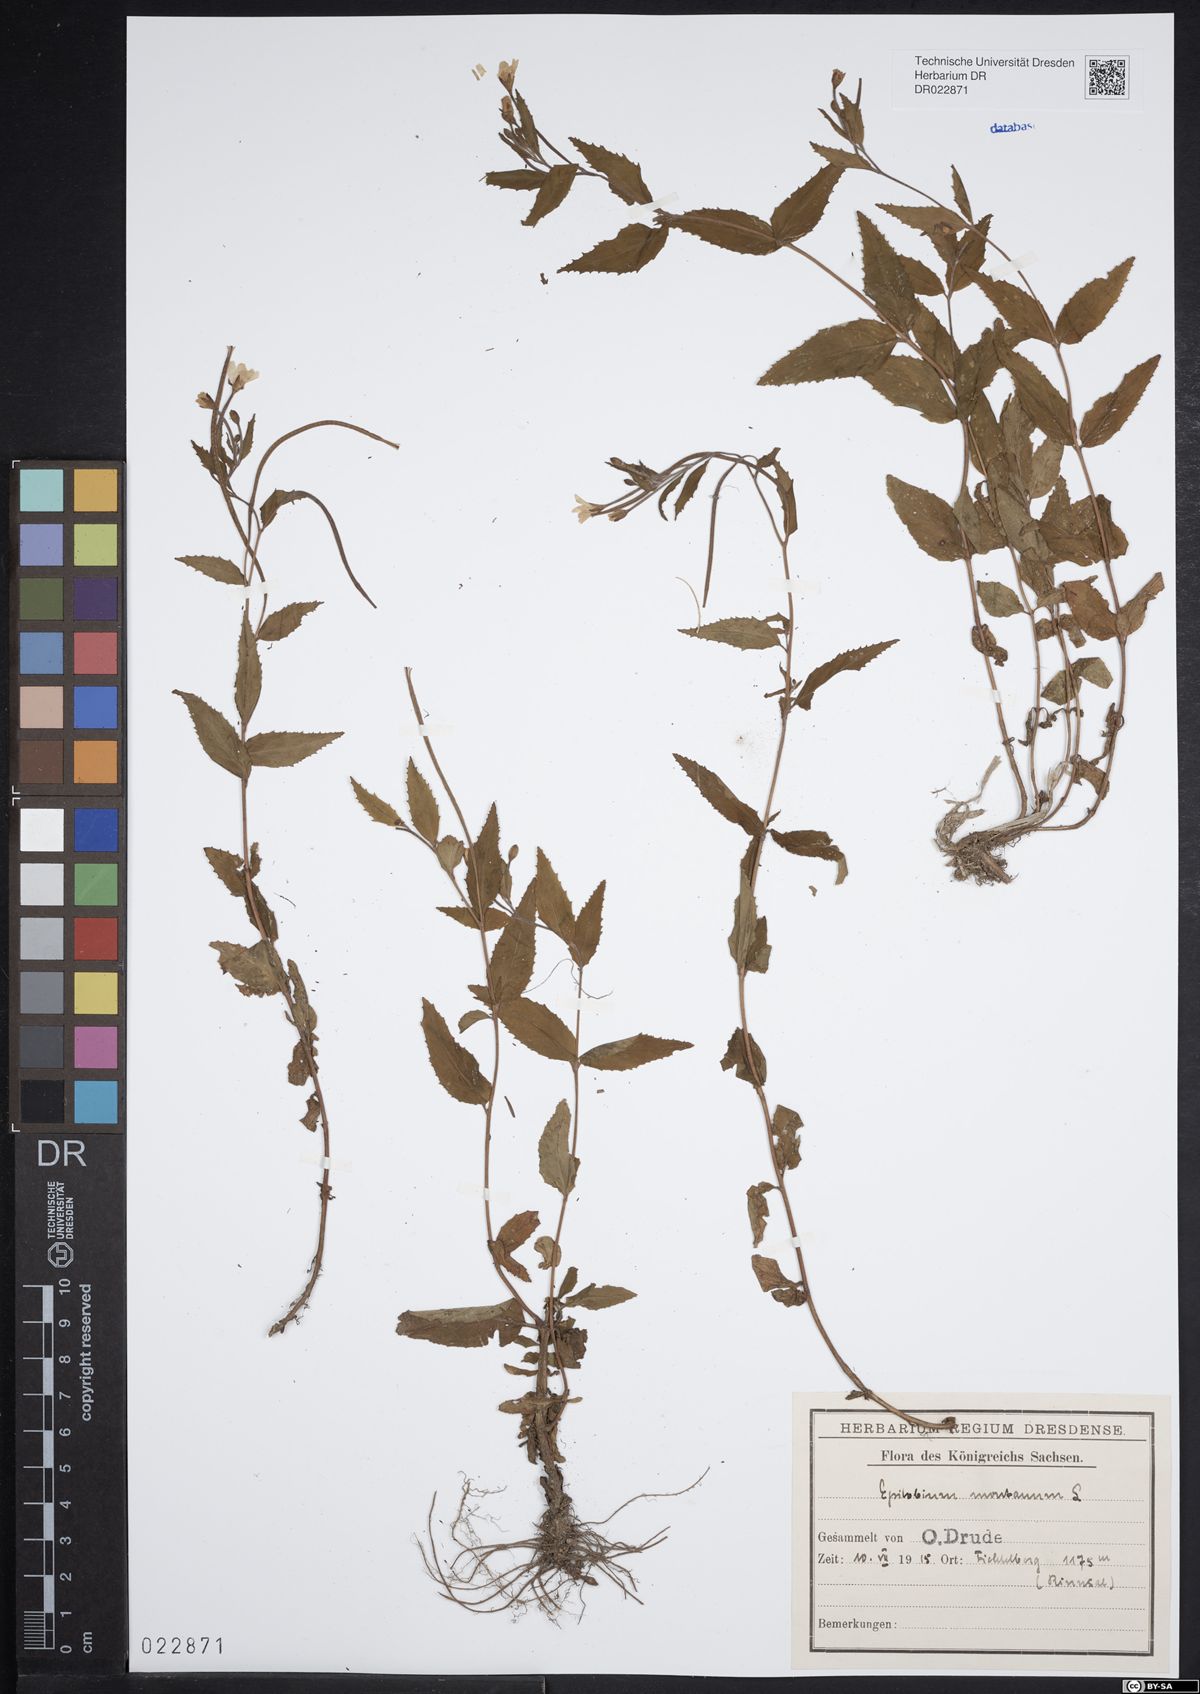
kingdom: Plantae
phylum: Tracheophyta
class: Magnoliopsida
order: Myrtales
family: Onagraceae
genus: Epilobium
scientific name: Epilobium montanum
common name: Broad-leaved willowherb
